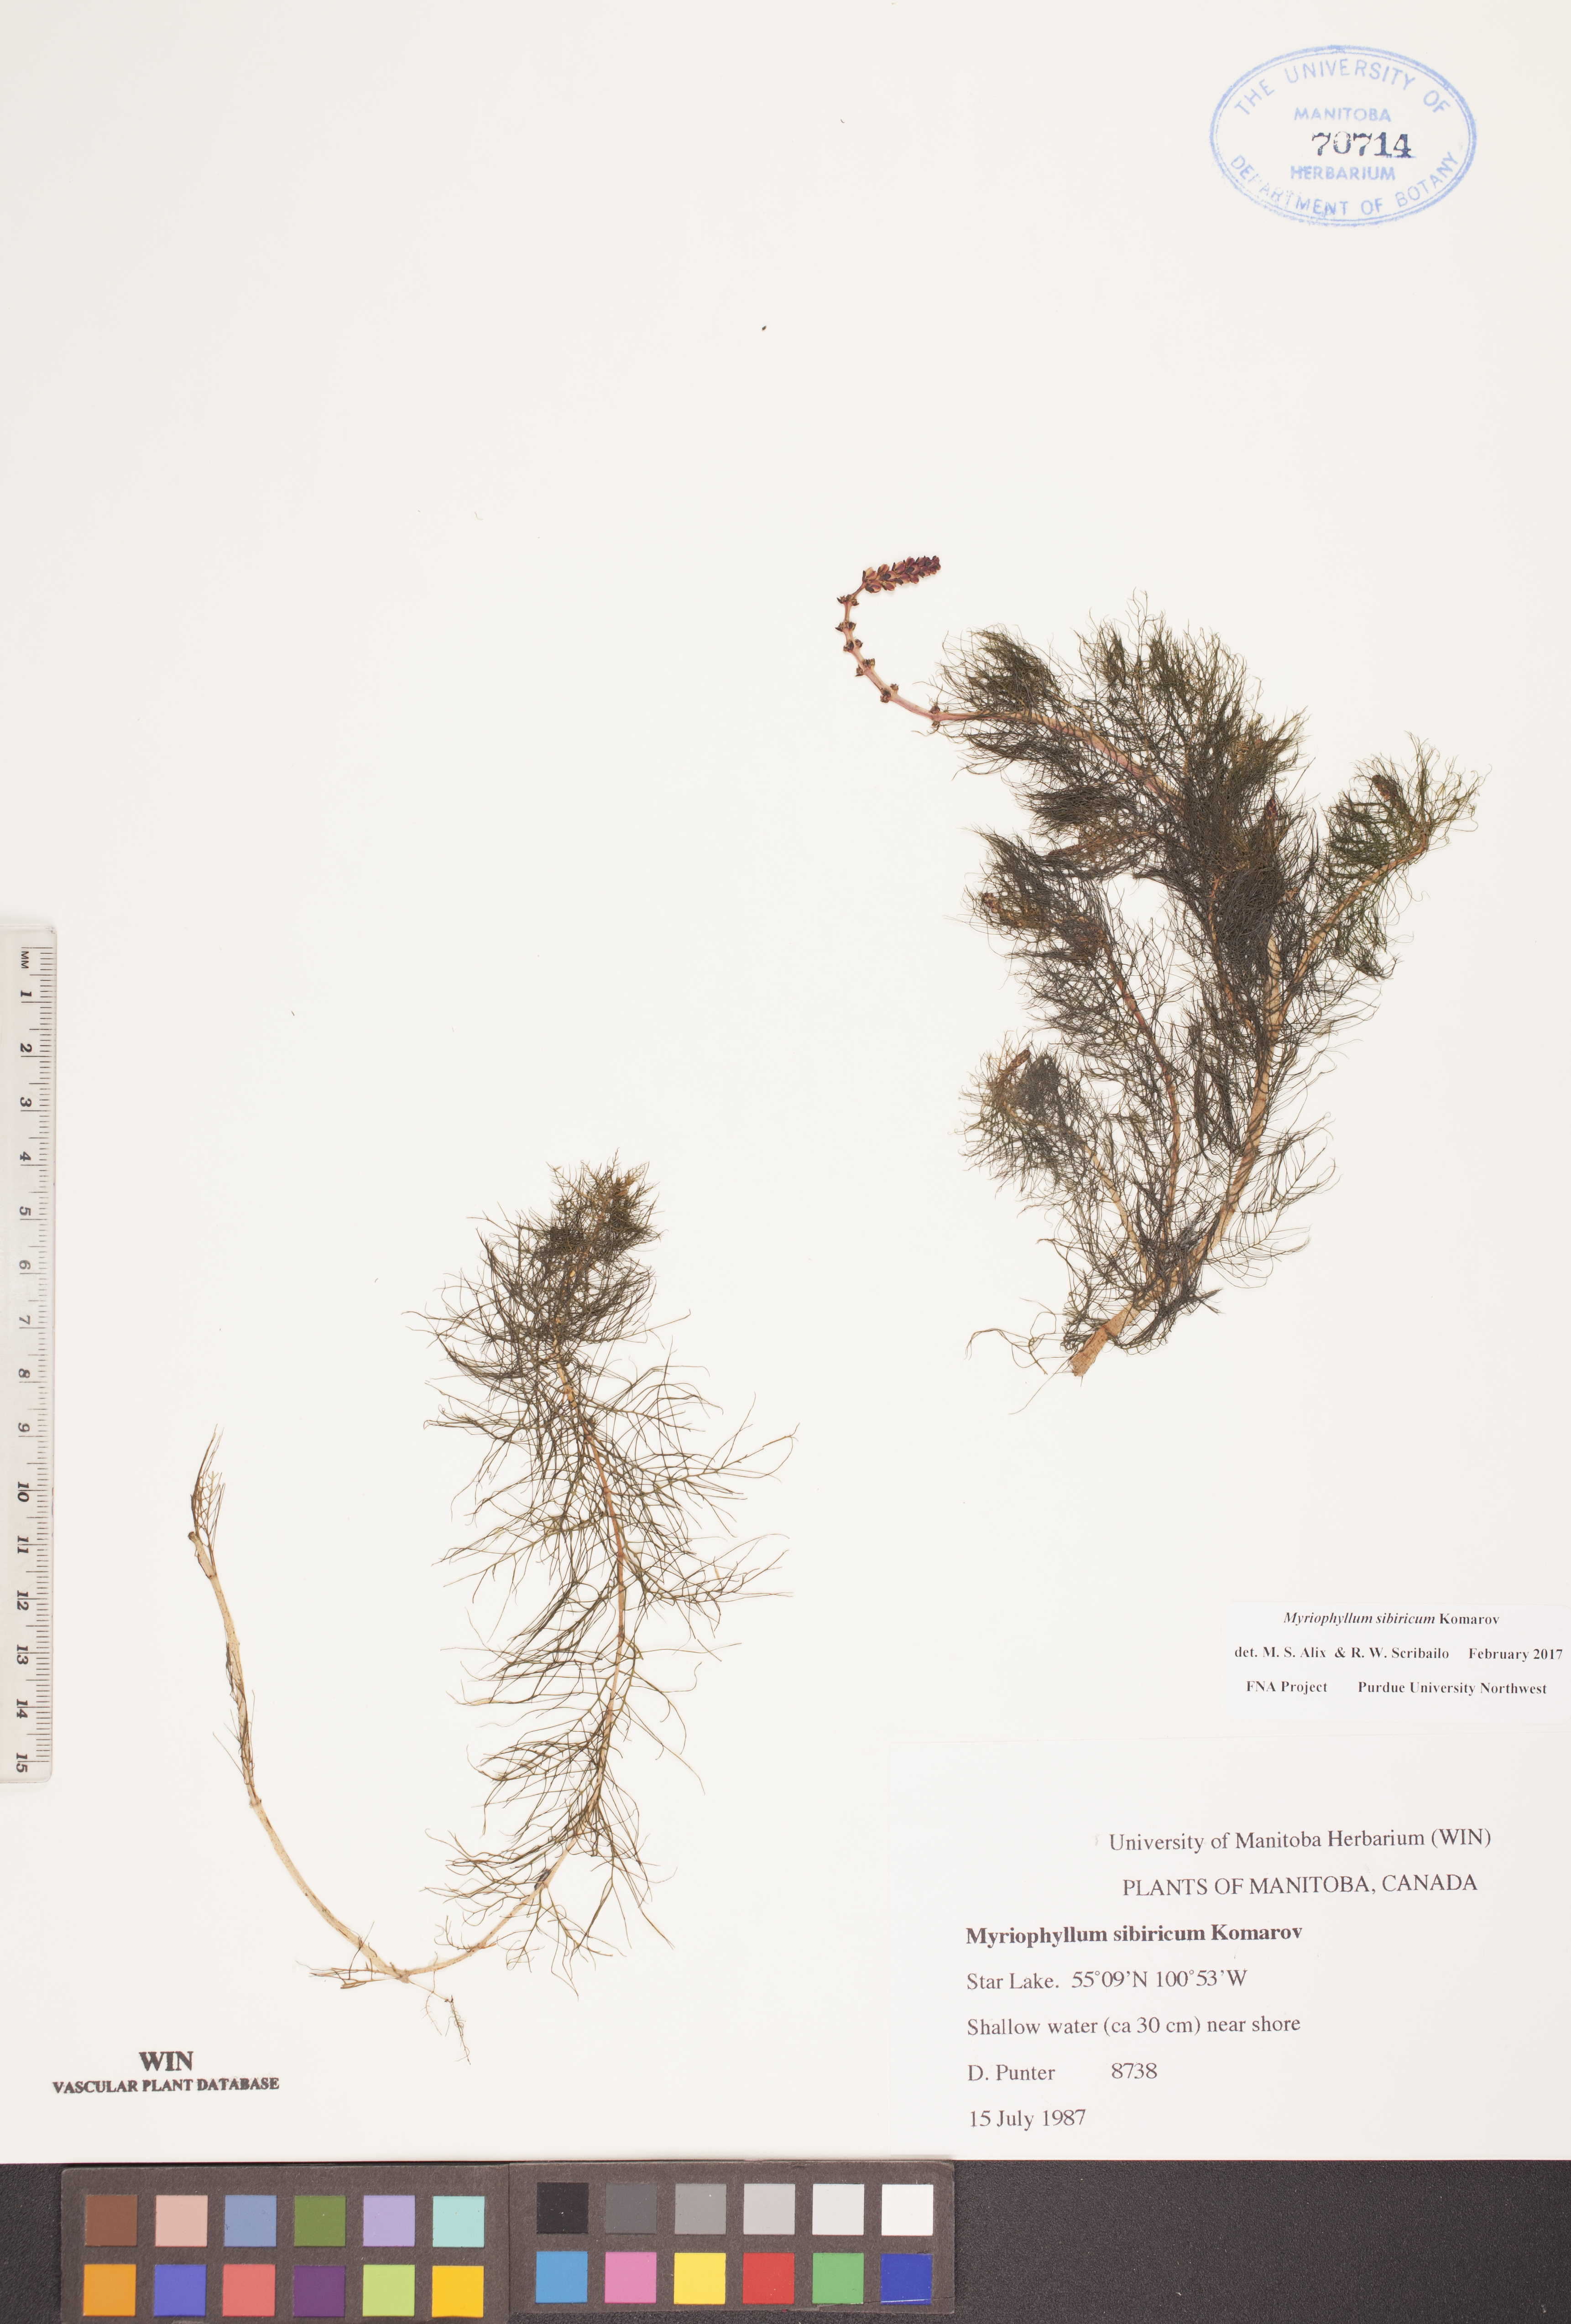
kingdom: Plantae
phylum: Tracheophyta
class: Magnoliopsida
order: Saxifragales
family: Haloragaceae
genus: Myriophyllum
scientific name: Myriophyllum sibiricum
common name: Siberian water-milfoil
